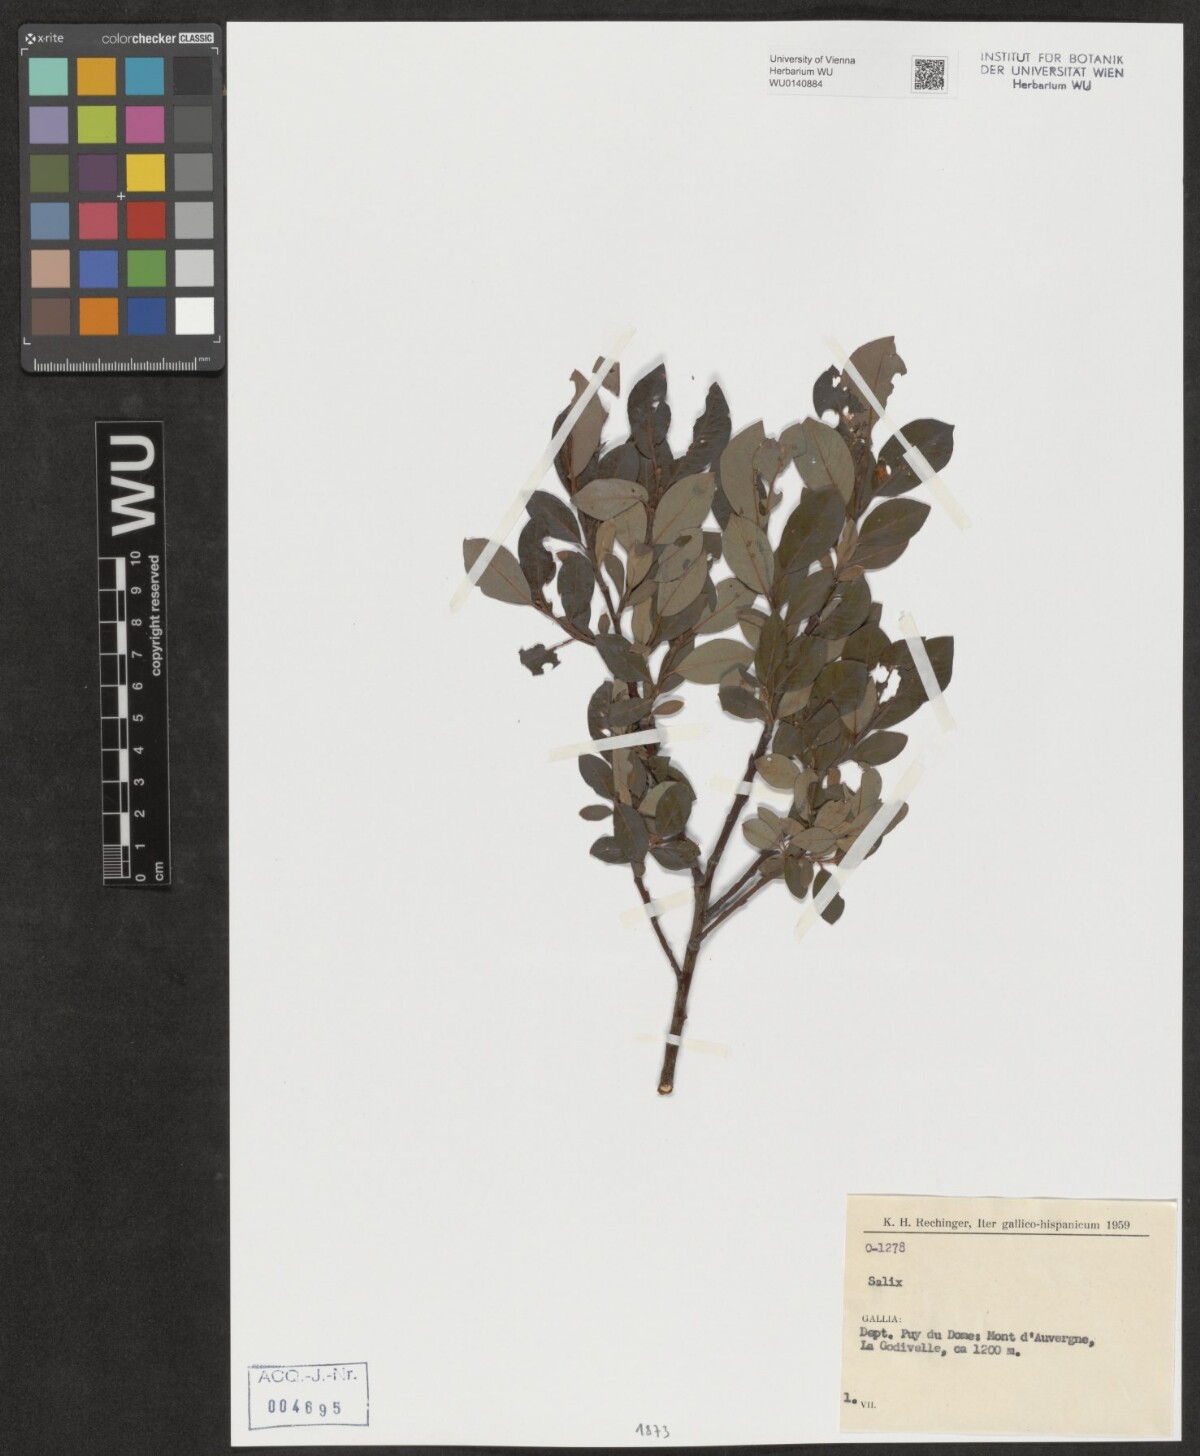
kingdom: Plantae
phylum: Tracheophyta
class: Magnoliopsida
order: Malpighiales
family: Salicaceae
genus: Salix
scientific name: Salix
